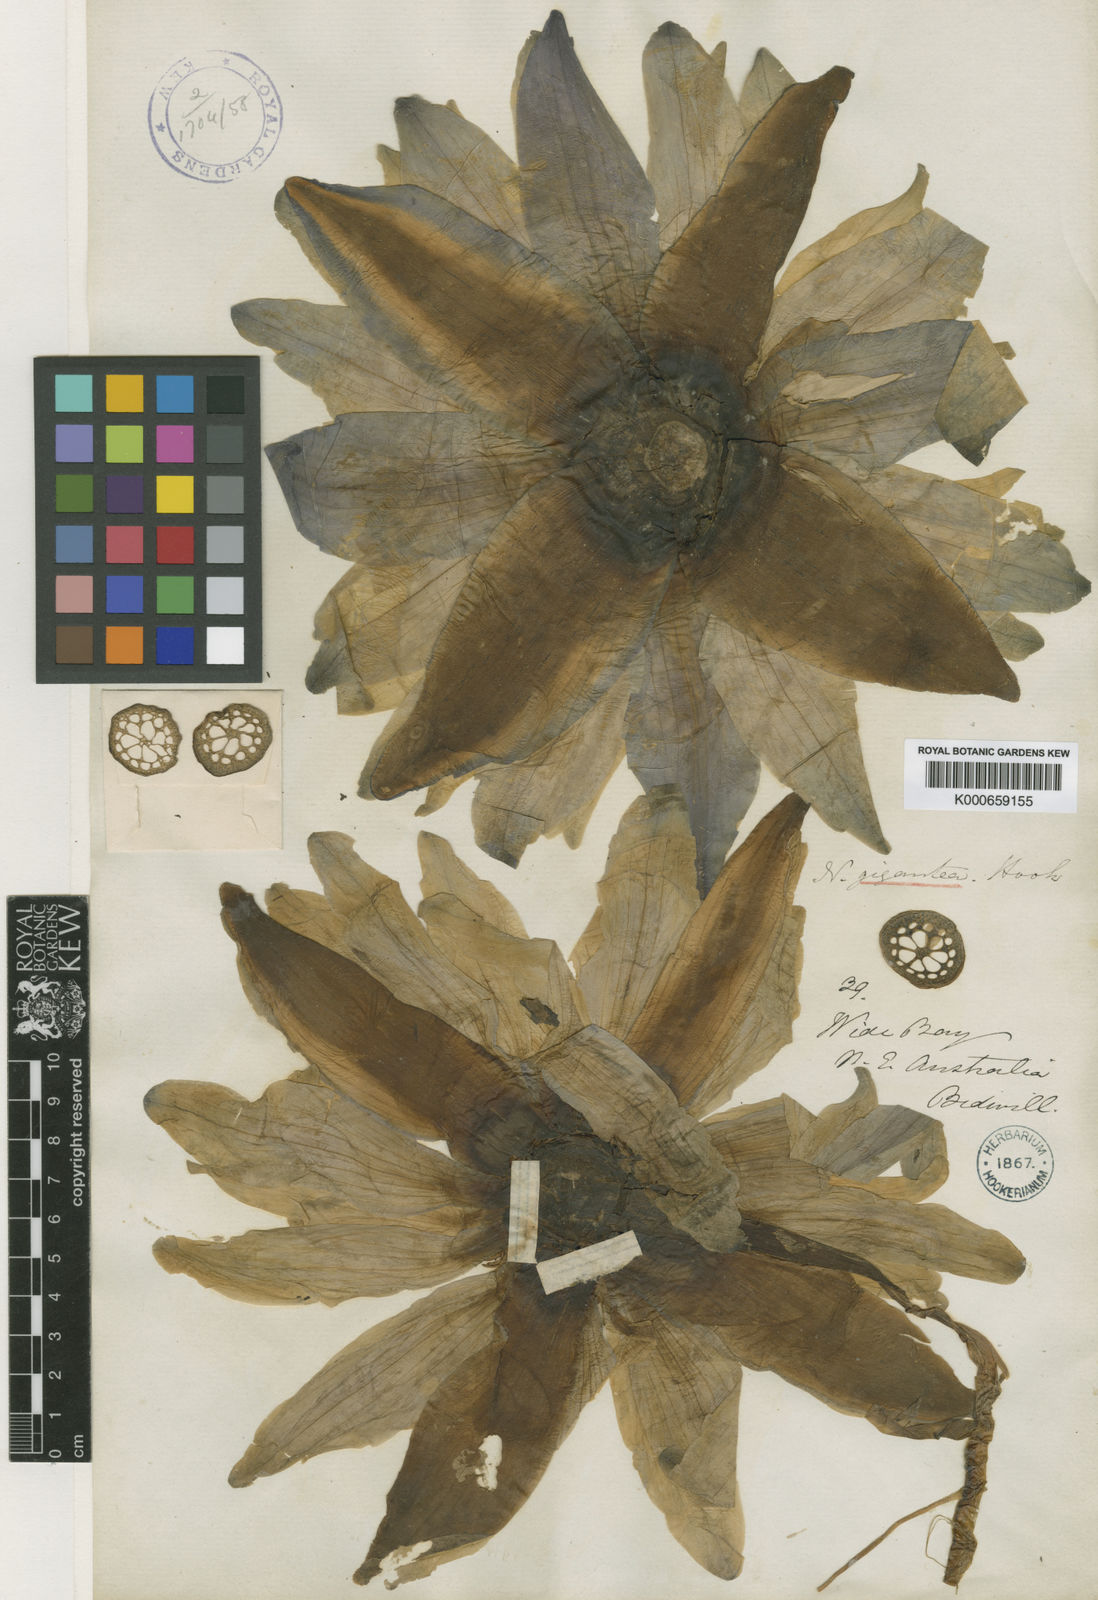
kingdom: Plantae
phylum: Tracheophyta
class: Magnoliopsida
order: Nymphaeales
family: Nymphaeaceae
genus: Nymphaea
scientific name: Nymphaea gigantea
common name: Giant water-lily
